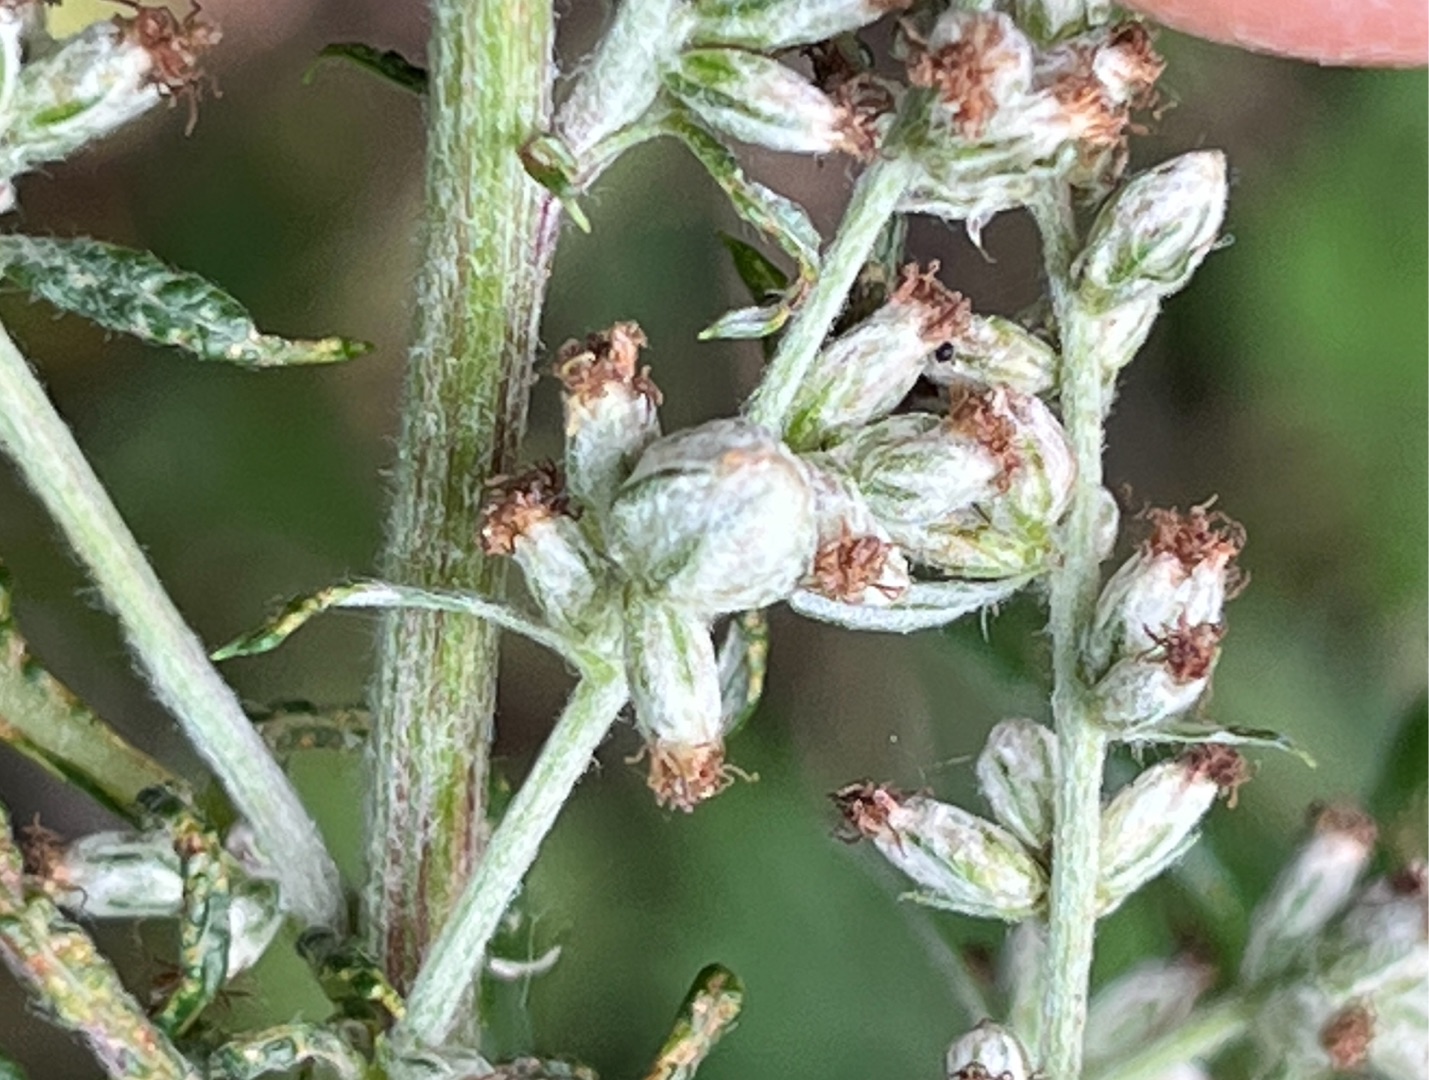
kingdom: Animalia
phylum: Arthropoda
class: Insecta
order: Diptera
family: Cecidomyiidae
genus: Ametrodiplosis
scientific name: Ametrodiplosis rudimentalis
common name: Bynkekurvgalmyg
